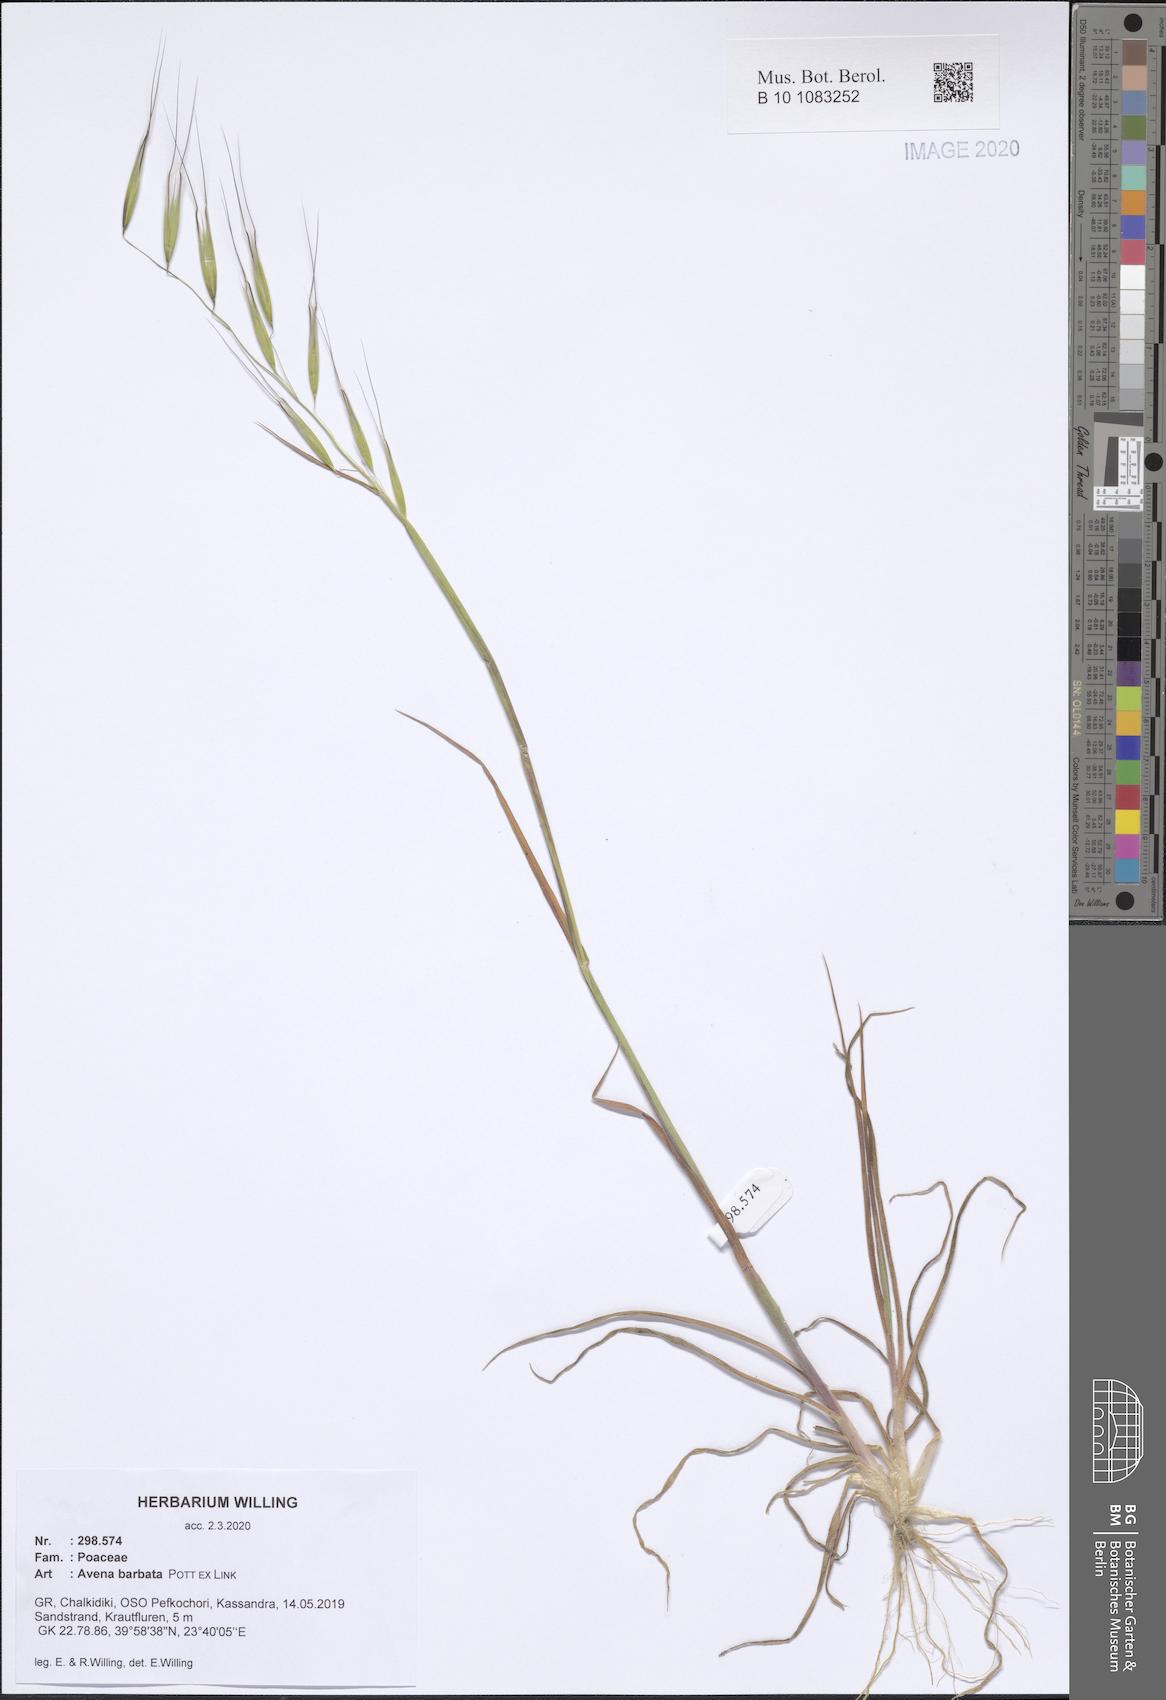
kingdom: Plantae
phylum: Tracheophyta
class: Liliopsida
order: Poales
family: Poaceae
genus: Avena
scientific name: Avena barbata
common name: Slender oat
